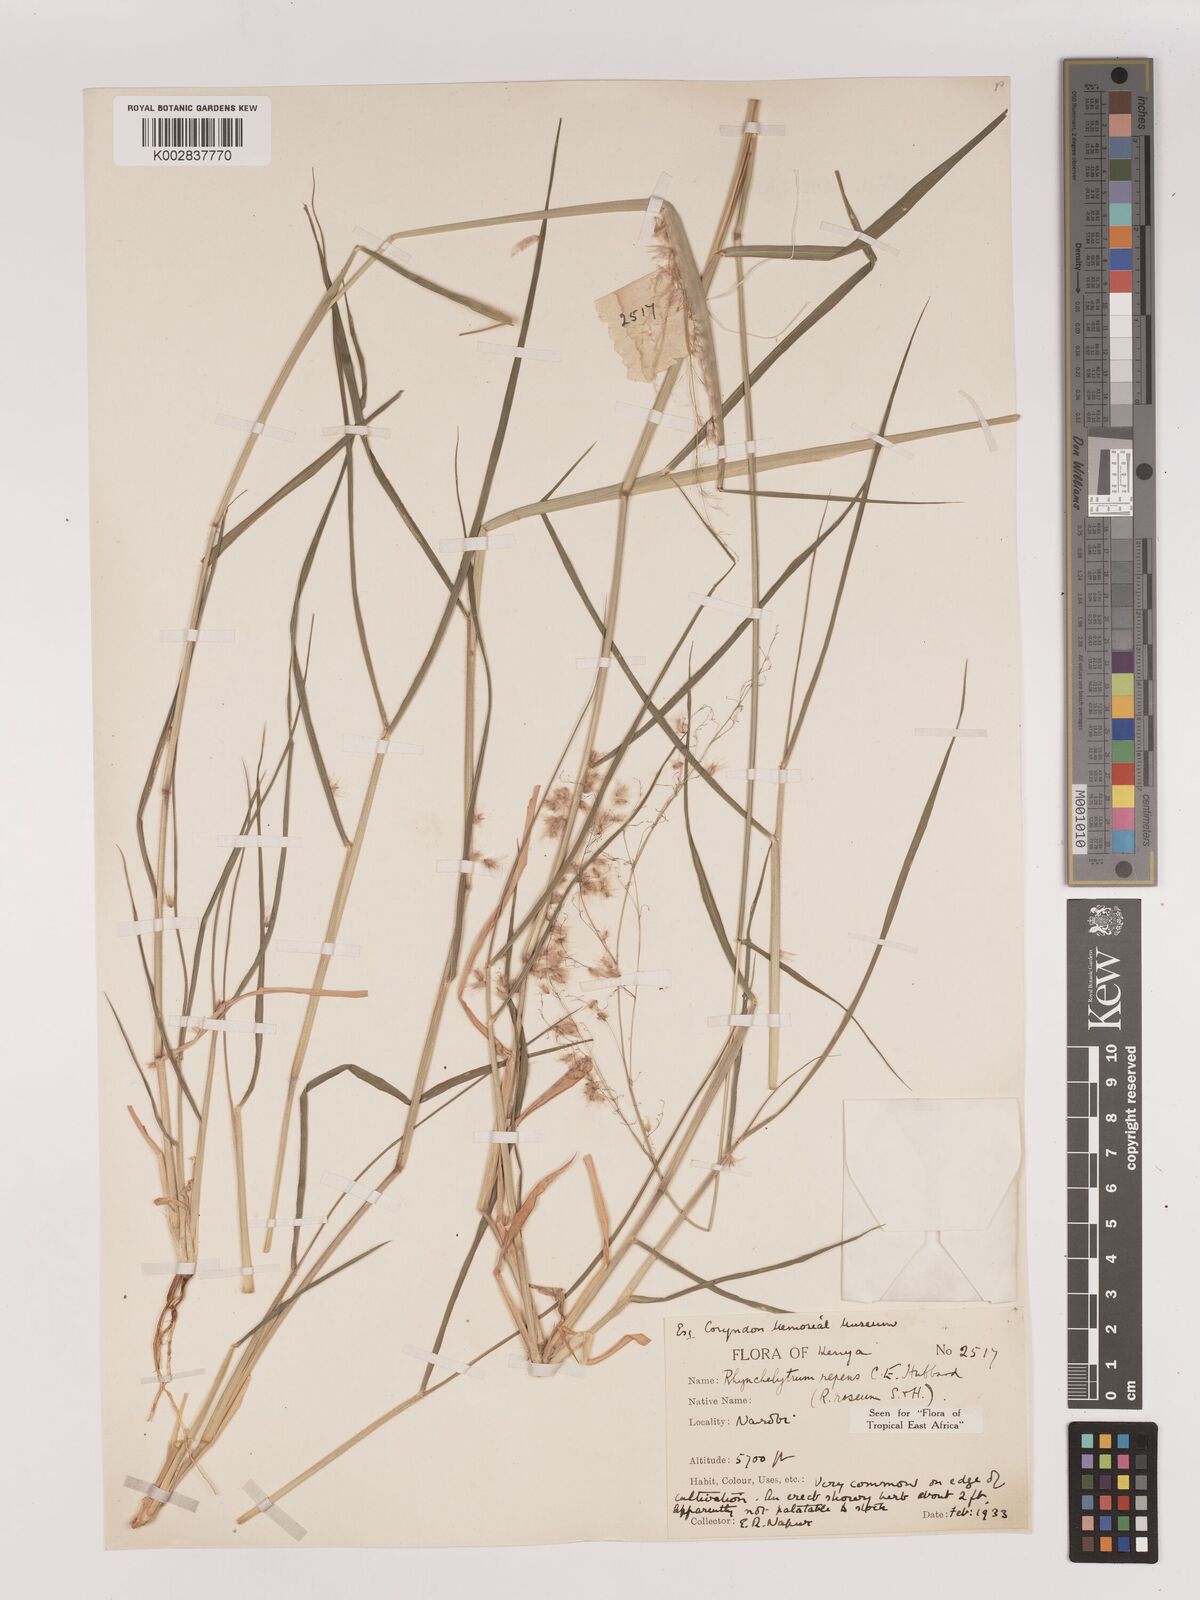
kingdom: Plantae
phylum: Tracheophyta
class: Liliopsida
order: Poales
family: Poaceae
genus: Melinis
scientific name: Melinis repens
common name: Rose natal grass
